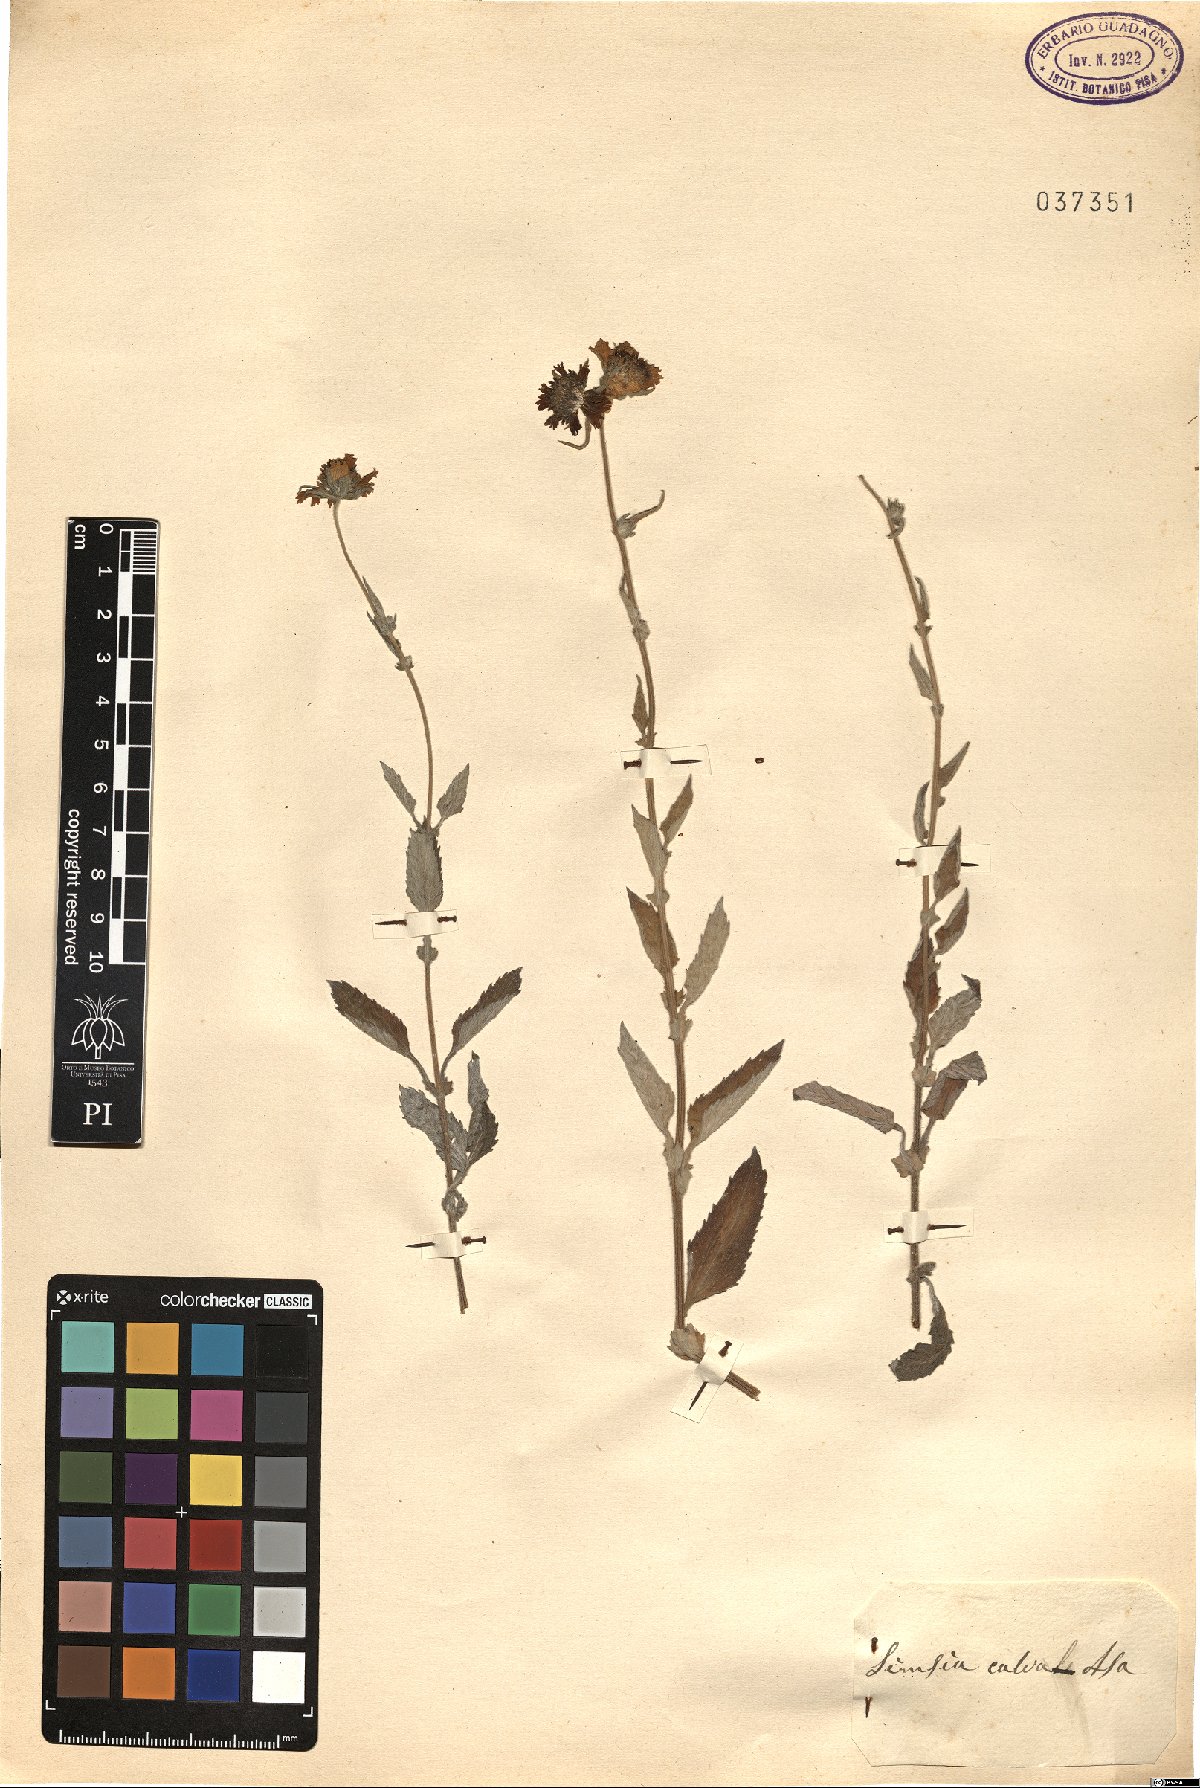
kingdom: Plantae
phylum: Tracheophyta
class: Magnoliopsida
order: Asterales
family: Asteraceae
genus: Simsia
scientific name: Simsia calva
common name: Awnless bush-sunflower
